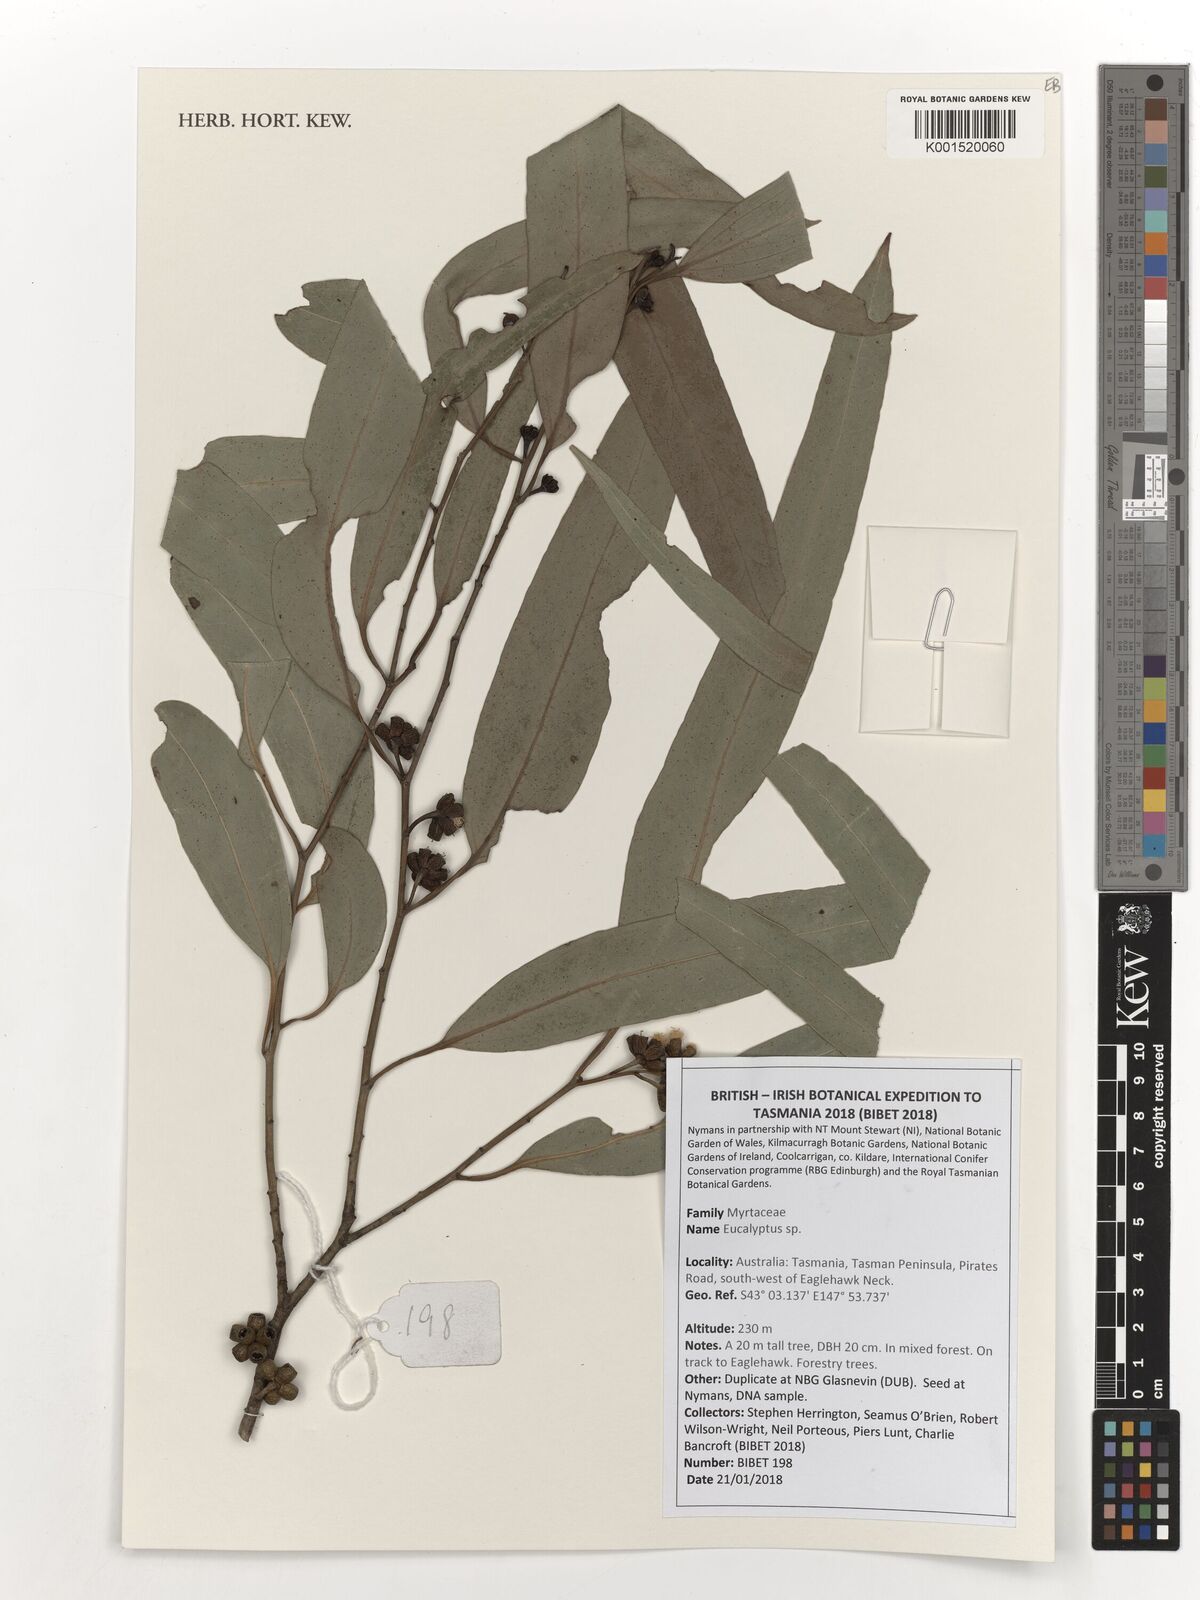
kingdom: Plantae
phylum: Tracheophyta
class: Magnoliopsida
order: Myrtales
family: Myrtaceae
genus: Eucalyptus
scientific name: Eucalyptus
